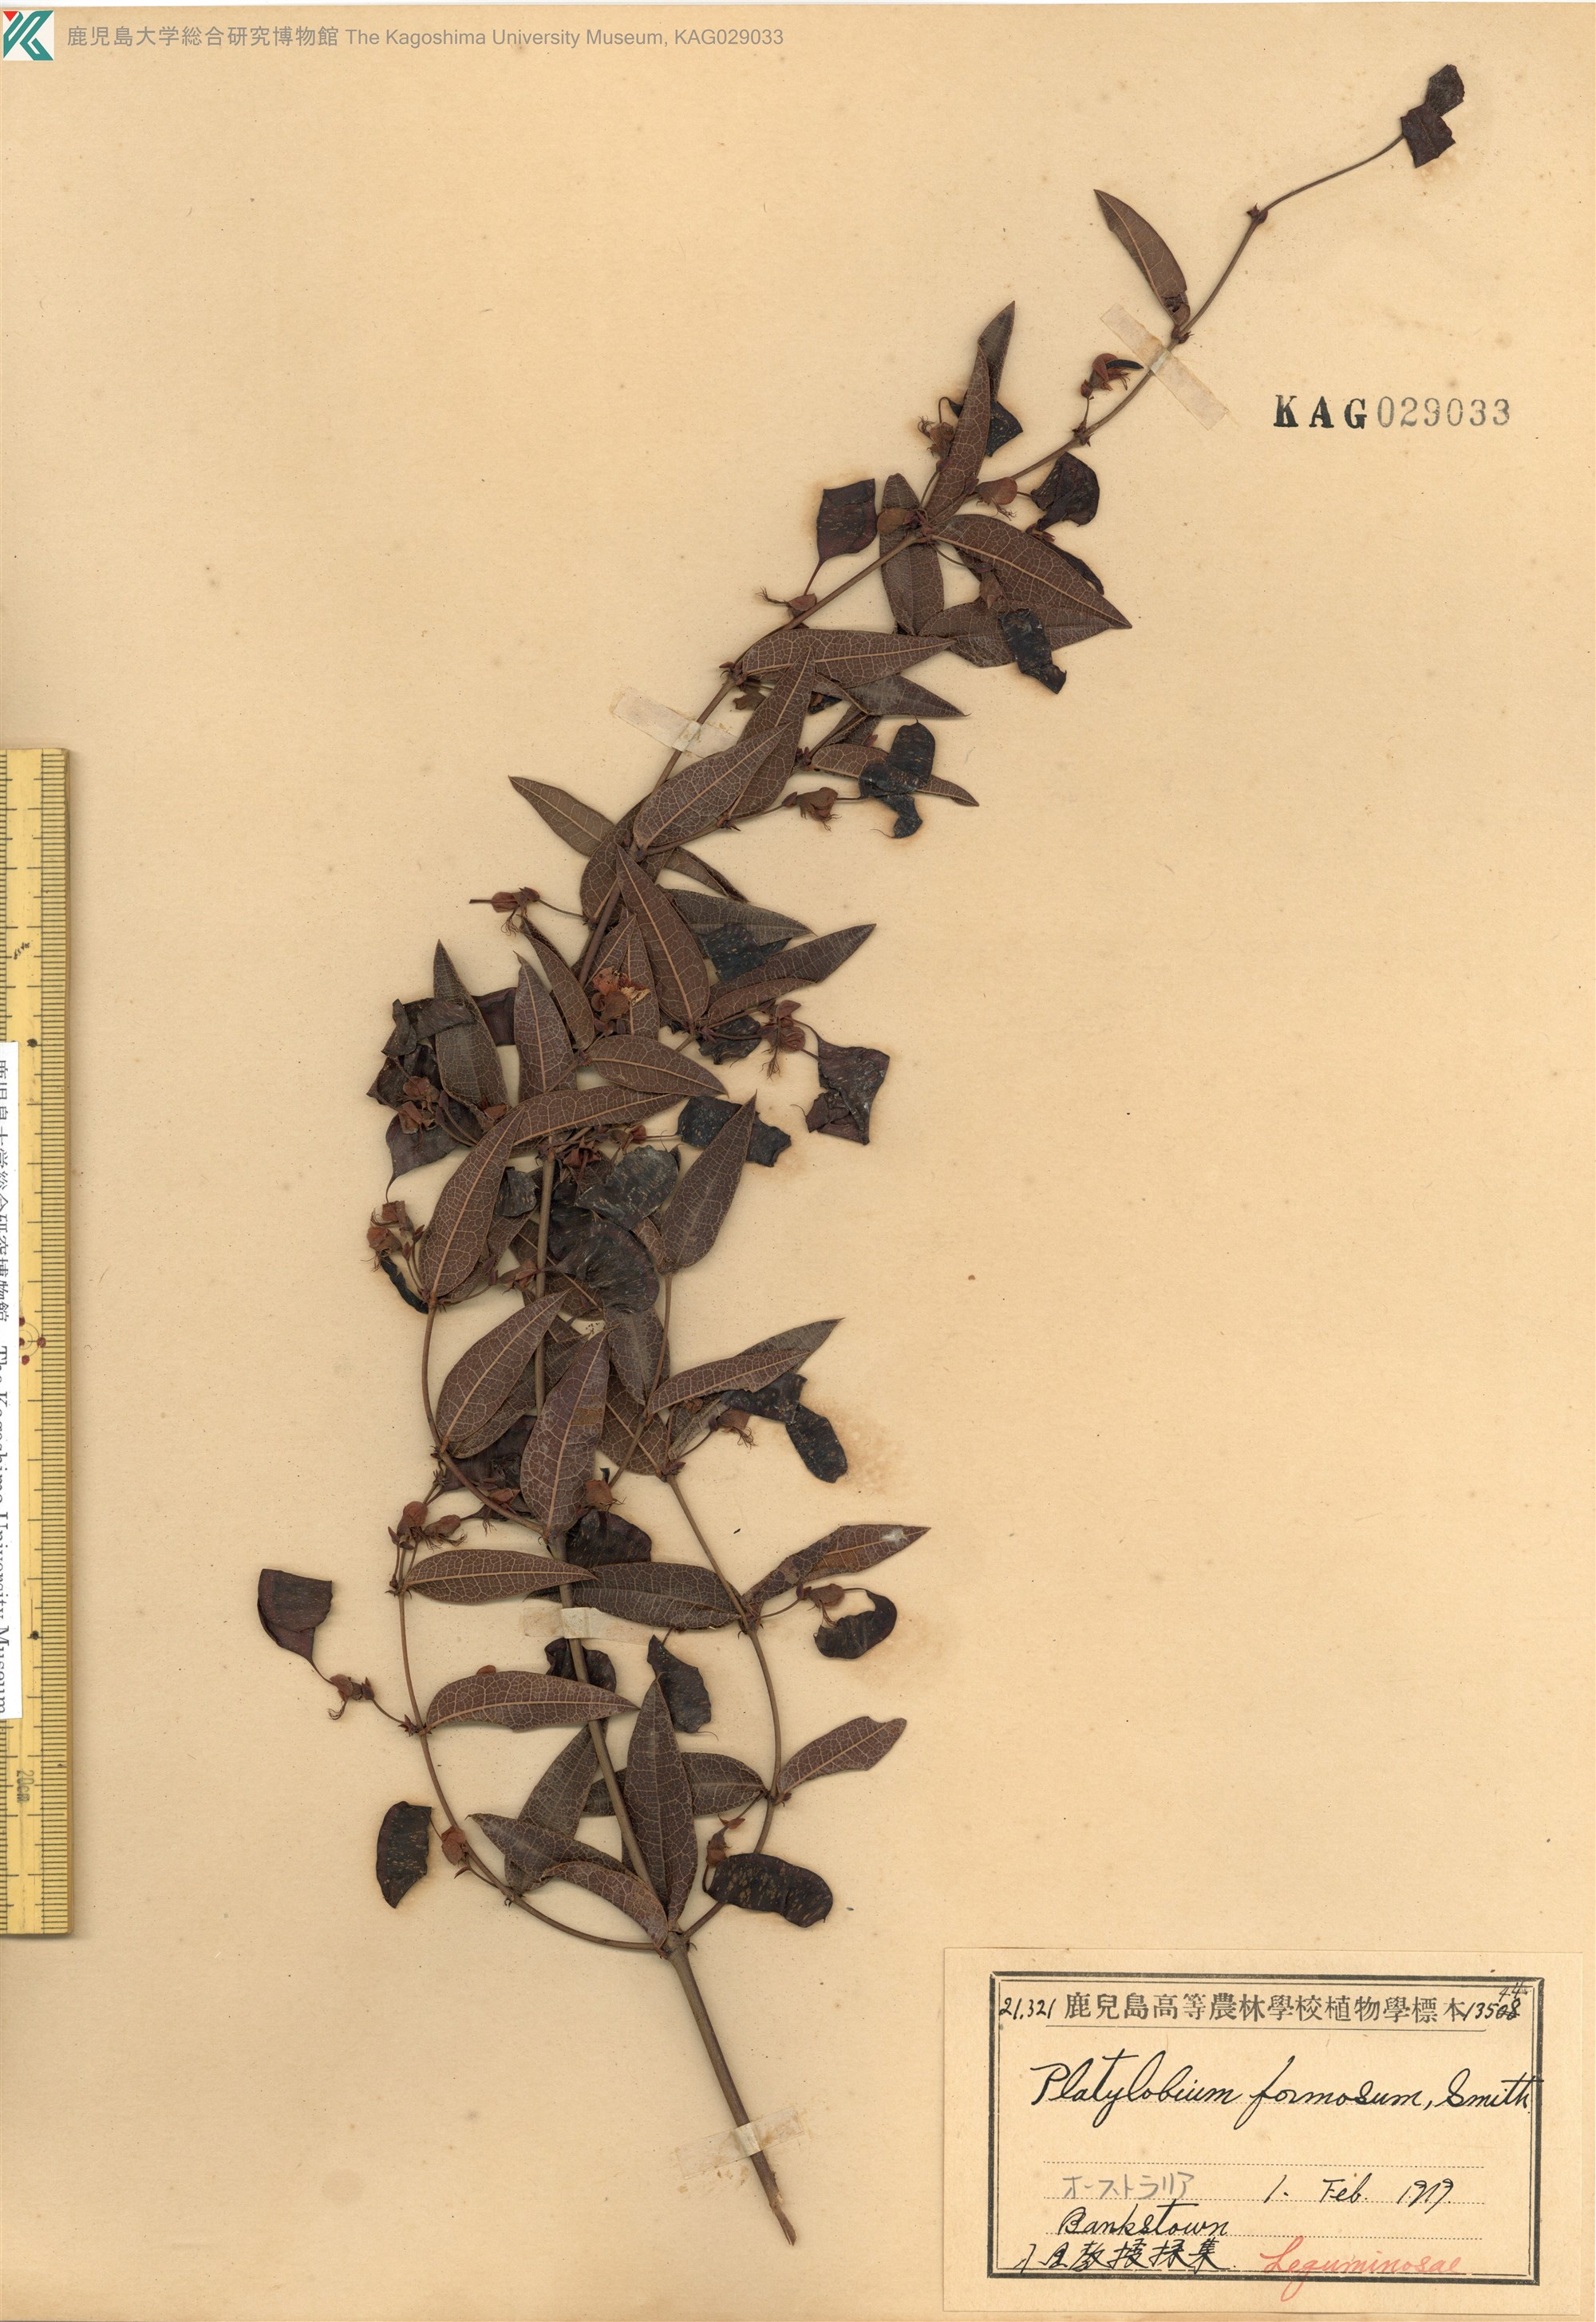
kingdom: Plantae
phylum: Tracheophyta
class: Magnoliopsida
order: Fabales
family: Fabaceae
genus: Platylobium
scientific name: Platylobium formosum
